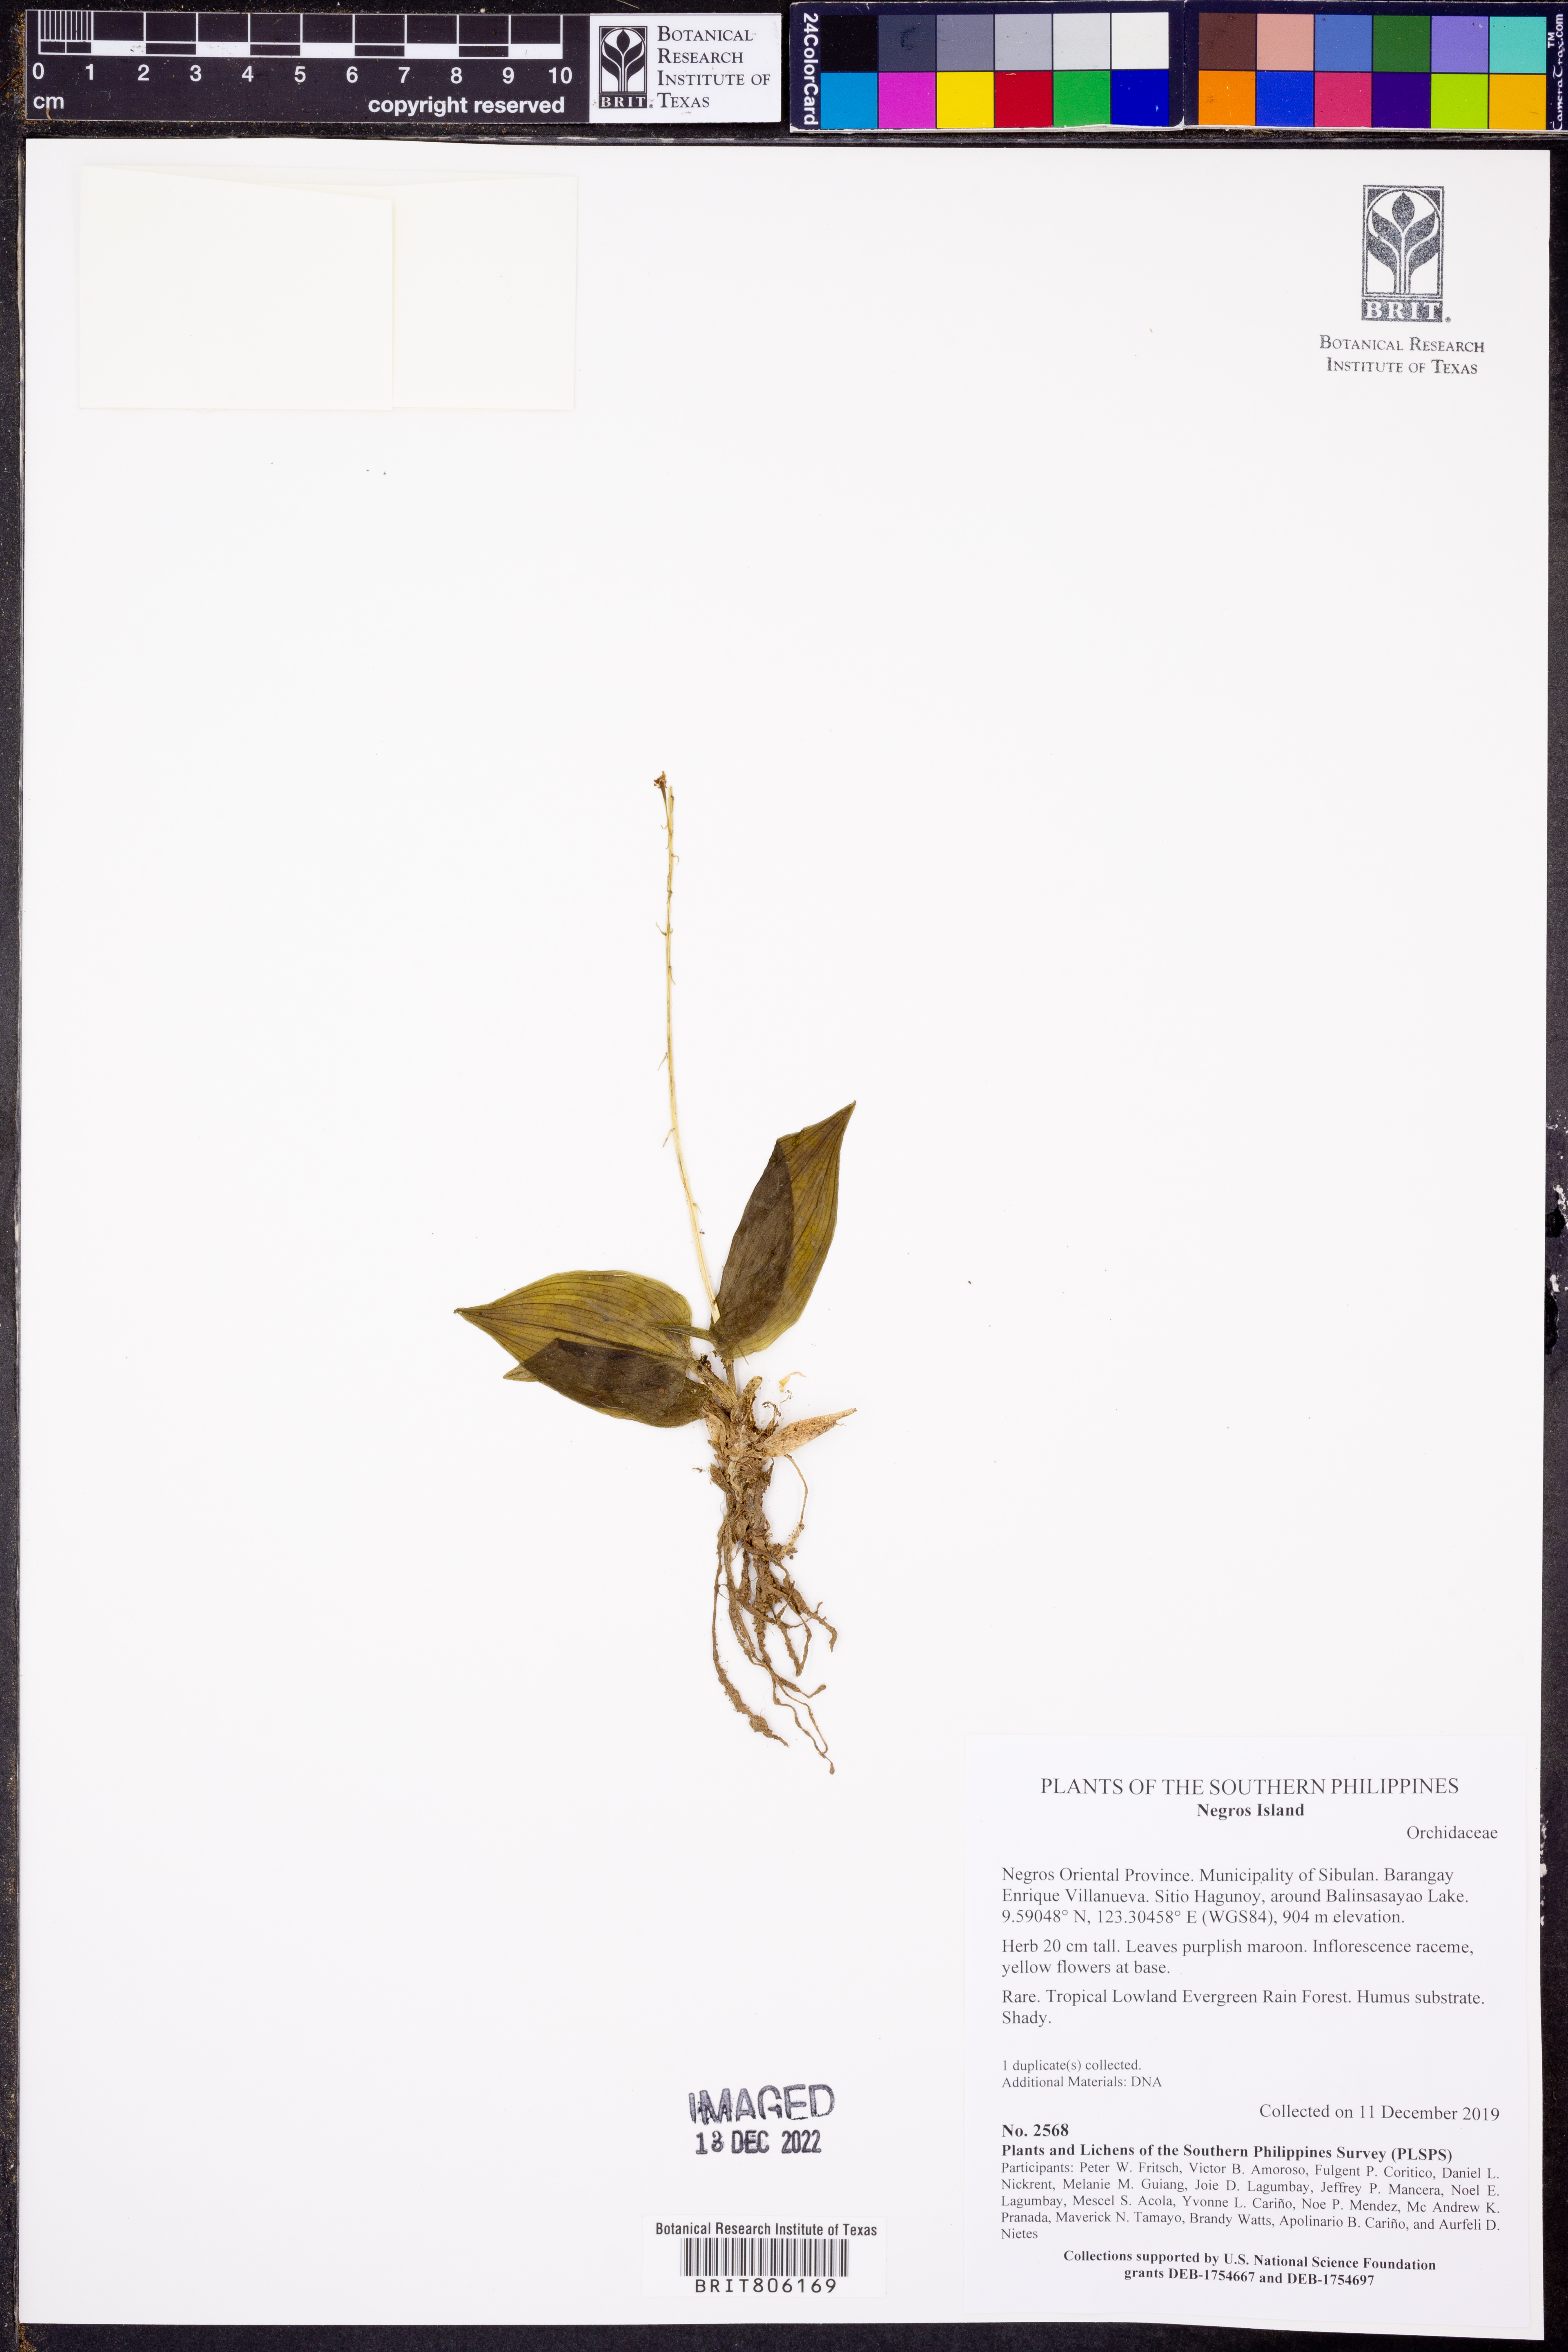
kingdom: Plantae
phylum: Tracheophyta
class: Liliopsida
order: Asparagales
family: Orchidaceae
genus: Crepidium
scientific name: Crepidium
